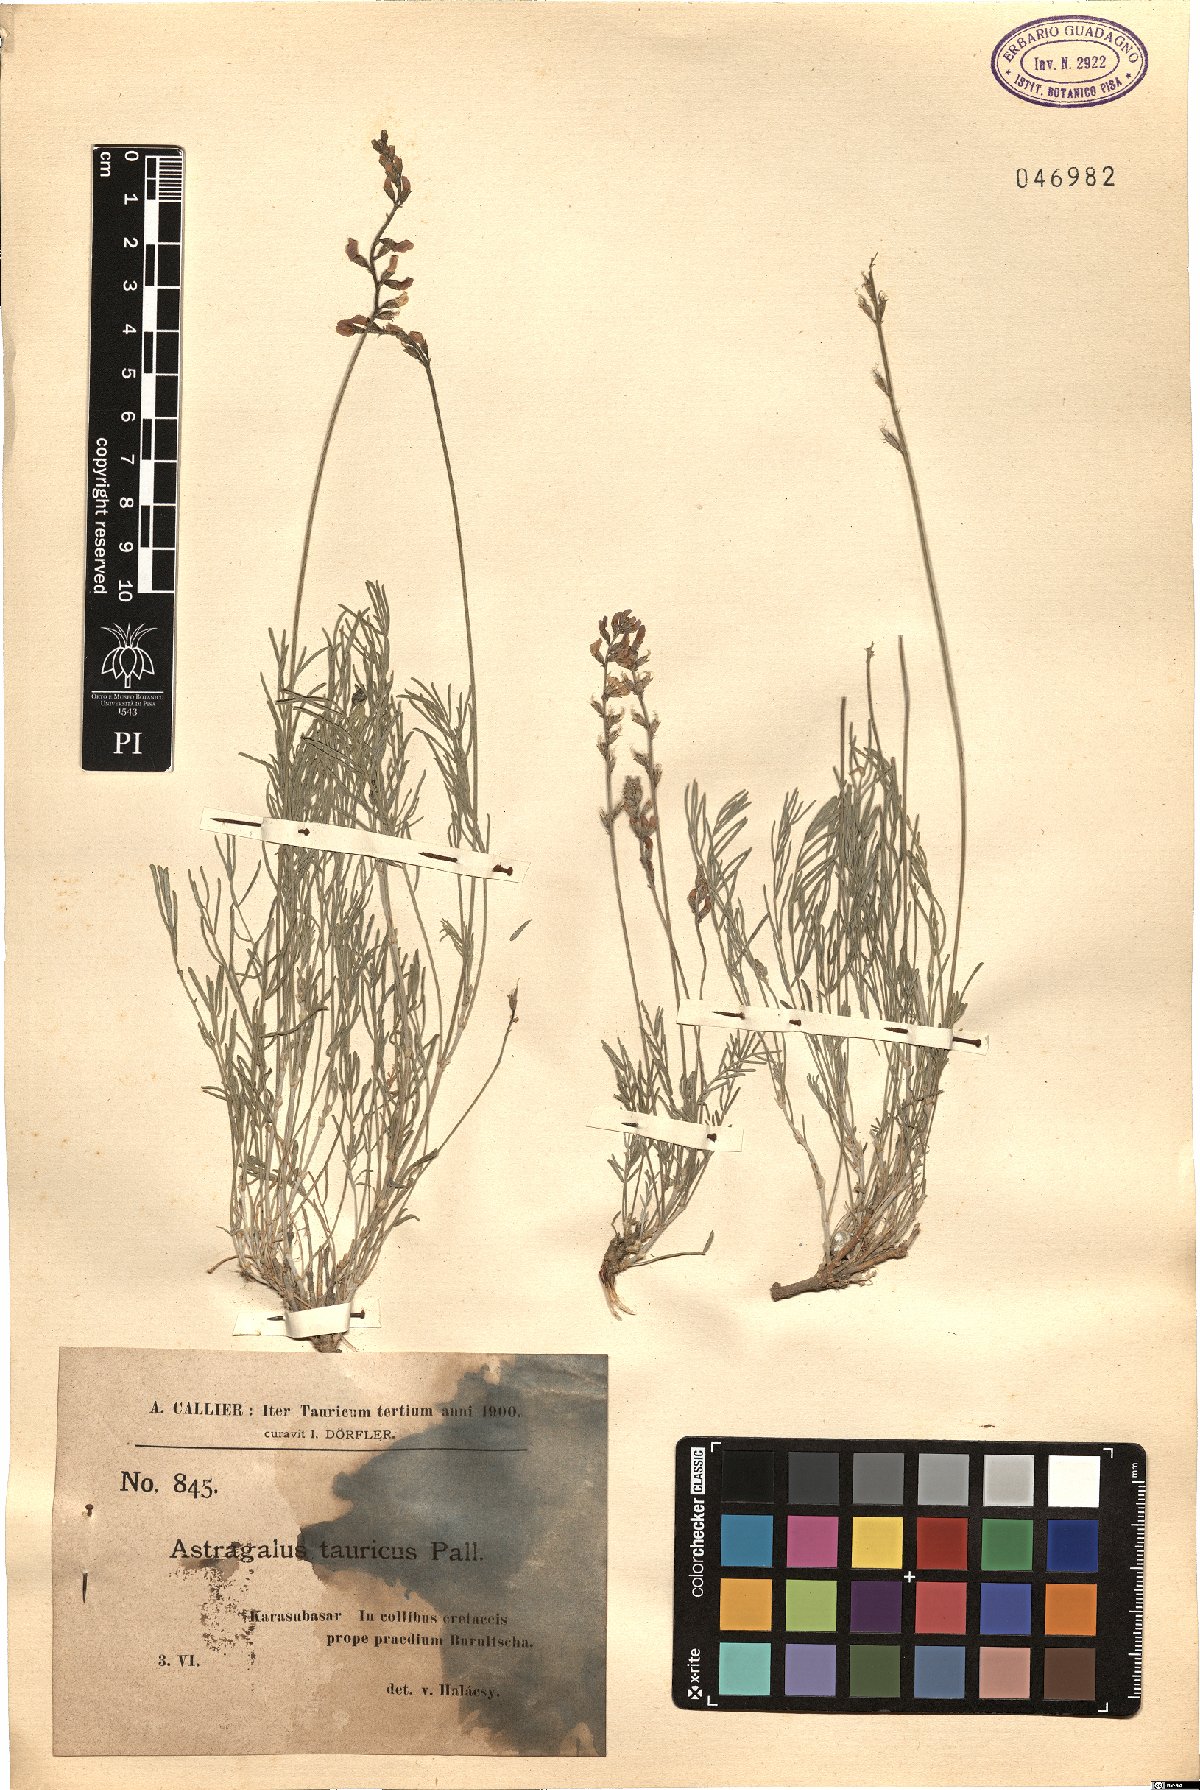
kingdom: Plantae
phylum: Tracheophyta
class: Magnoliopsida
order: Fabales
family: Fabaceae
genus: Astragalus
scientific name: Astragalus leontinus
